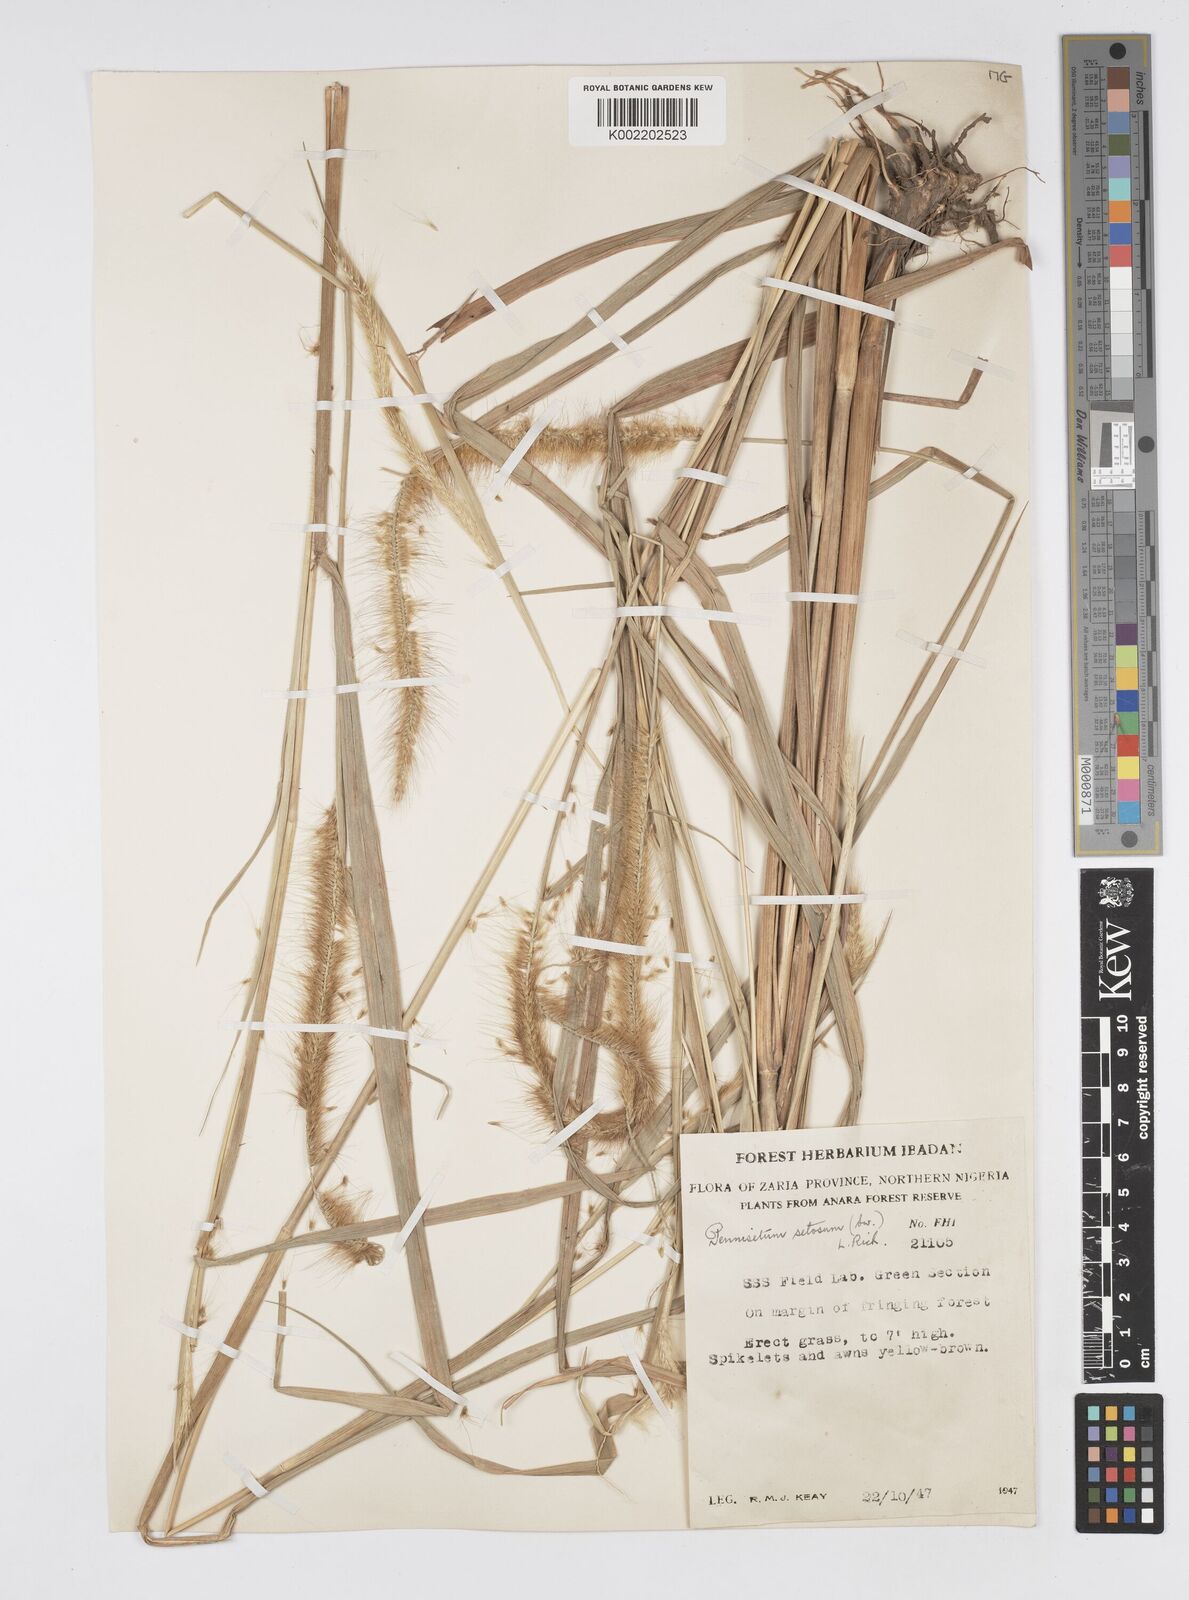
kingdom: Plantae
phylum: Tracheophyta
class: Liliopsida
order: Poales
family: Poaceae
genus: Cenchrus
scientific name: Cenchrus Pennisetum spec
